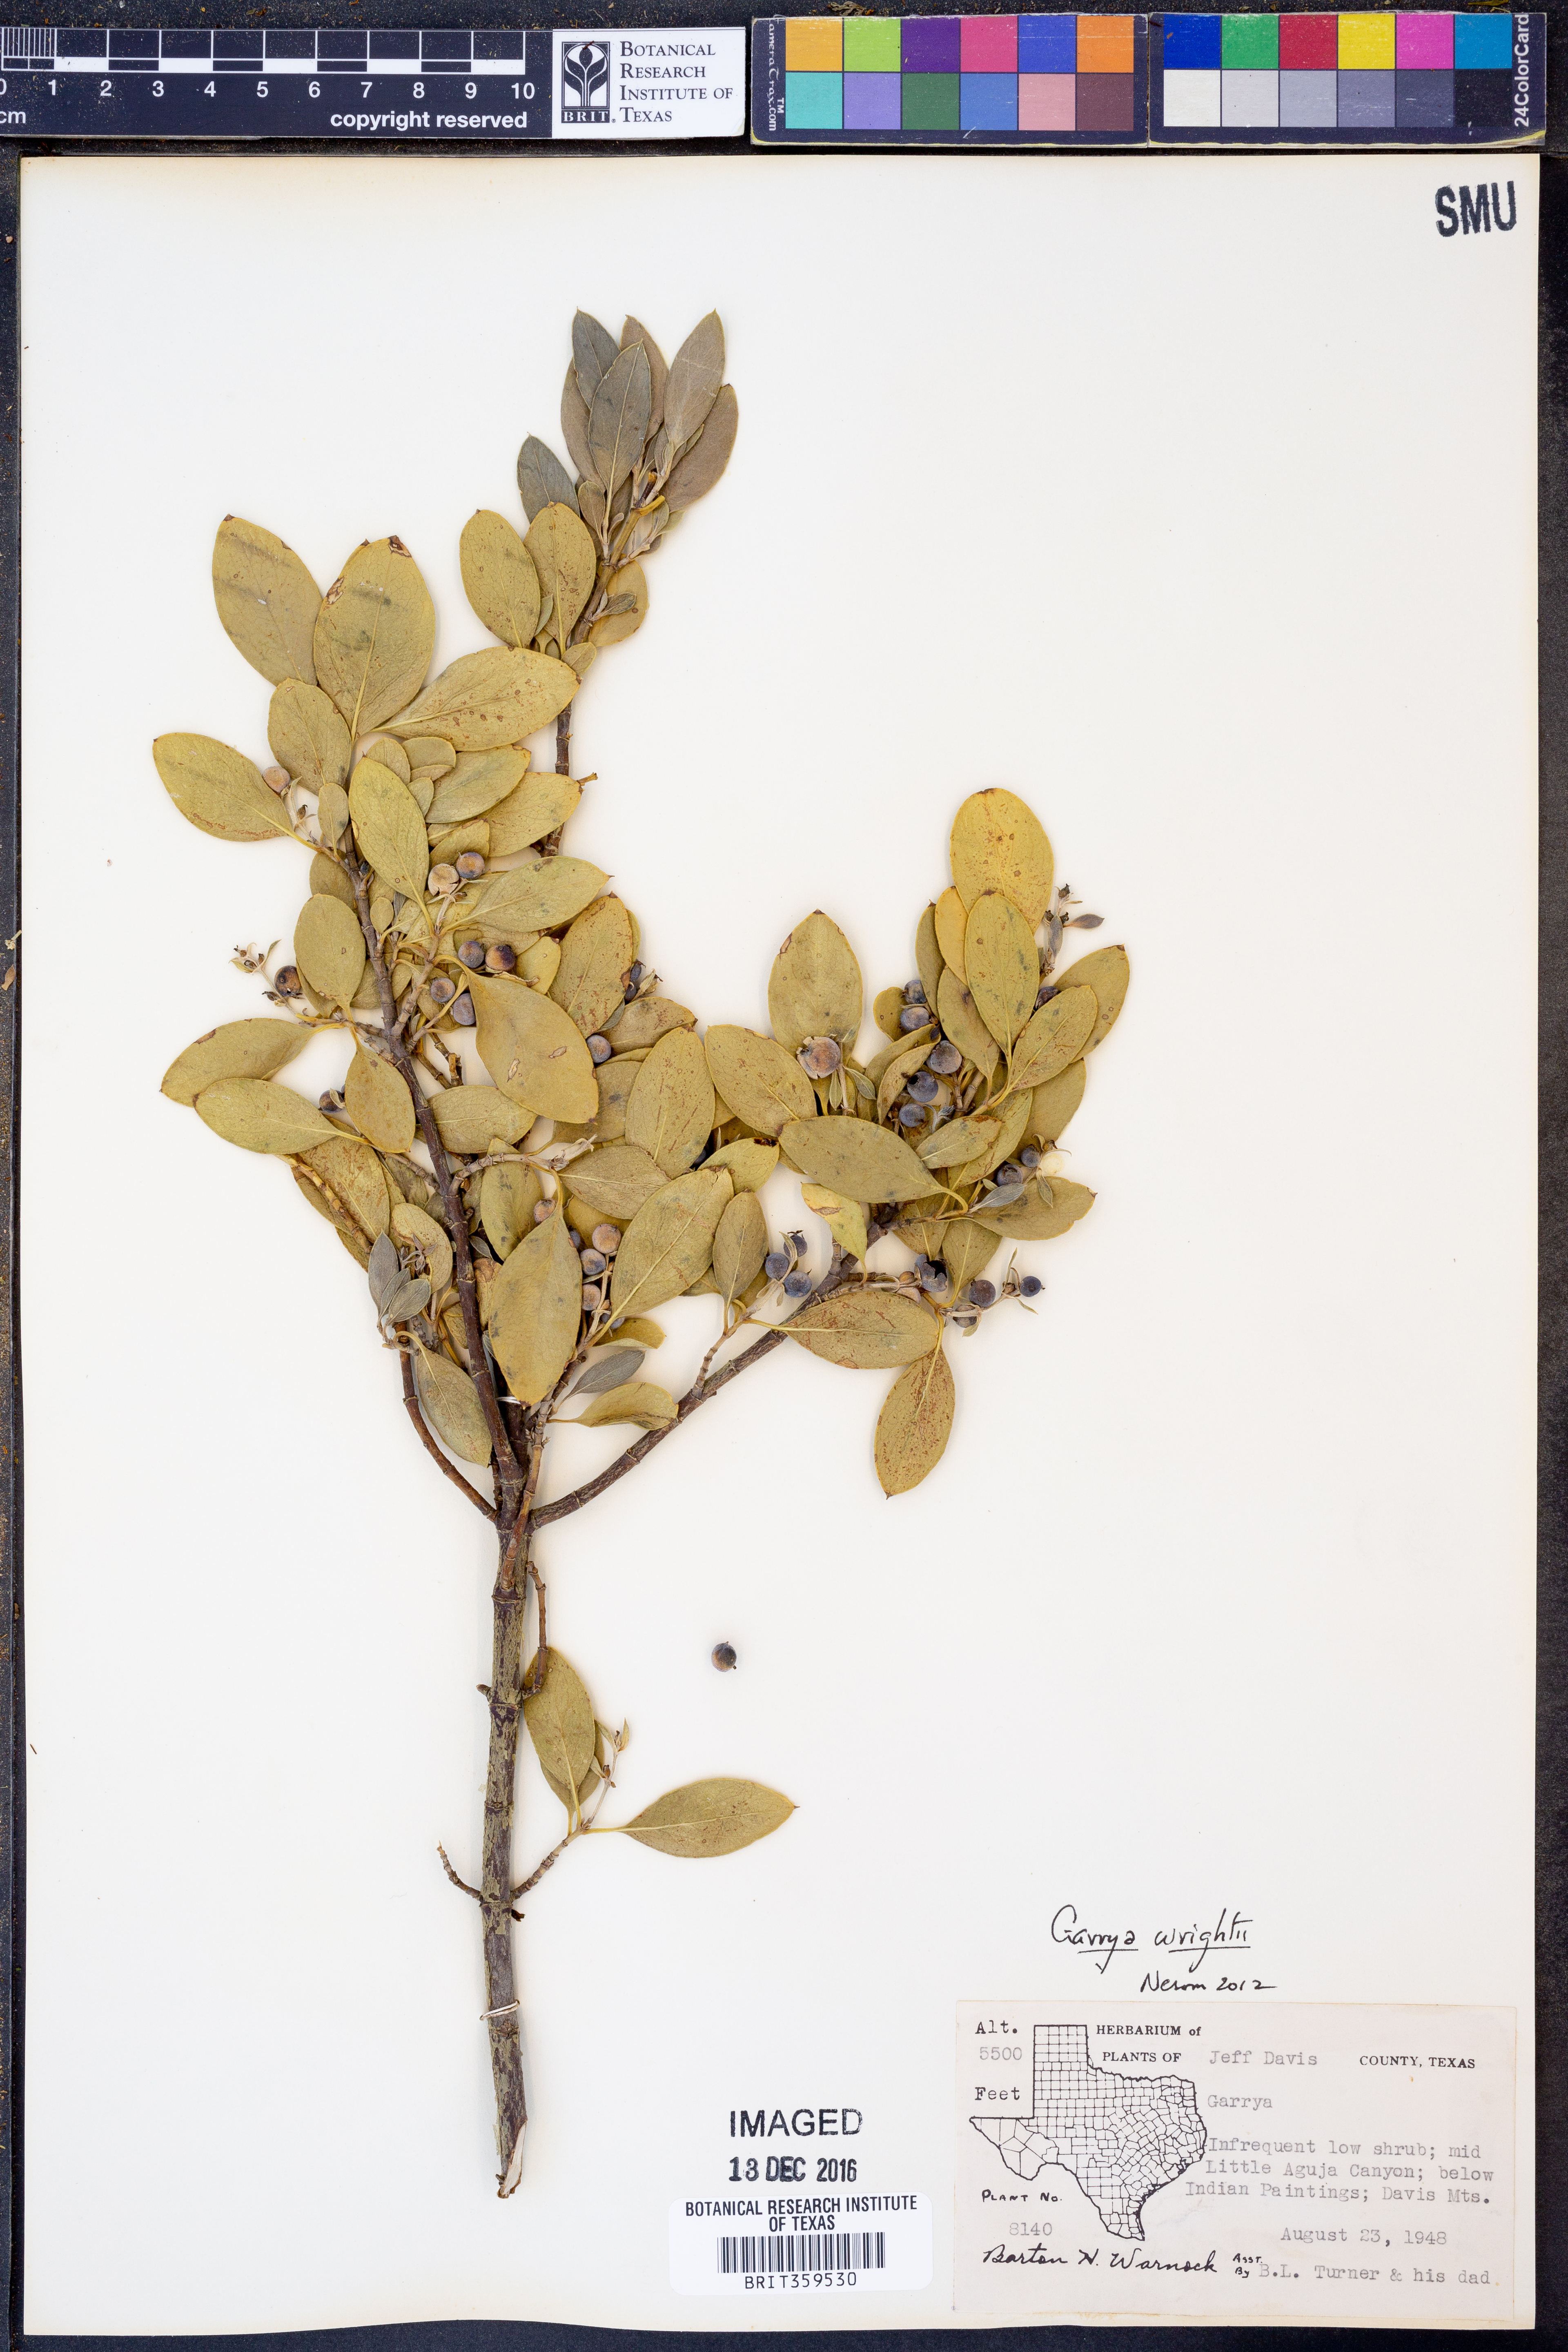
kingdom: Plantae
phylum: Tracheophyta
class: Magnoliopsida
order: Garryales
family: Garryaceae
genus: Garrya
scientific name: Garrya wrightii
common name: Wright's silktassel
